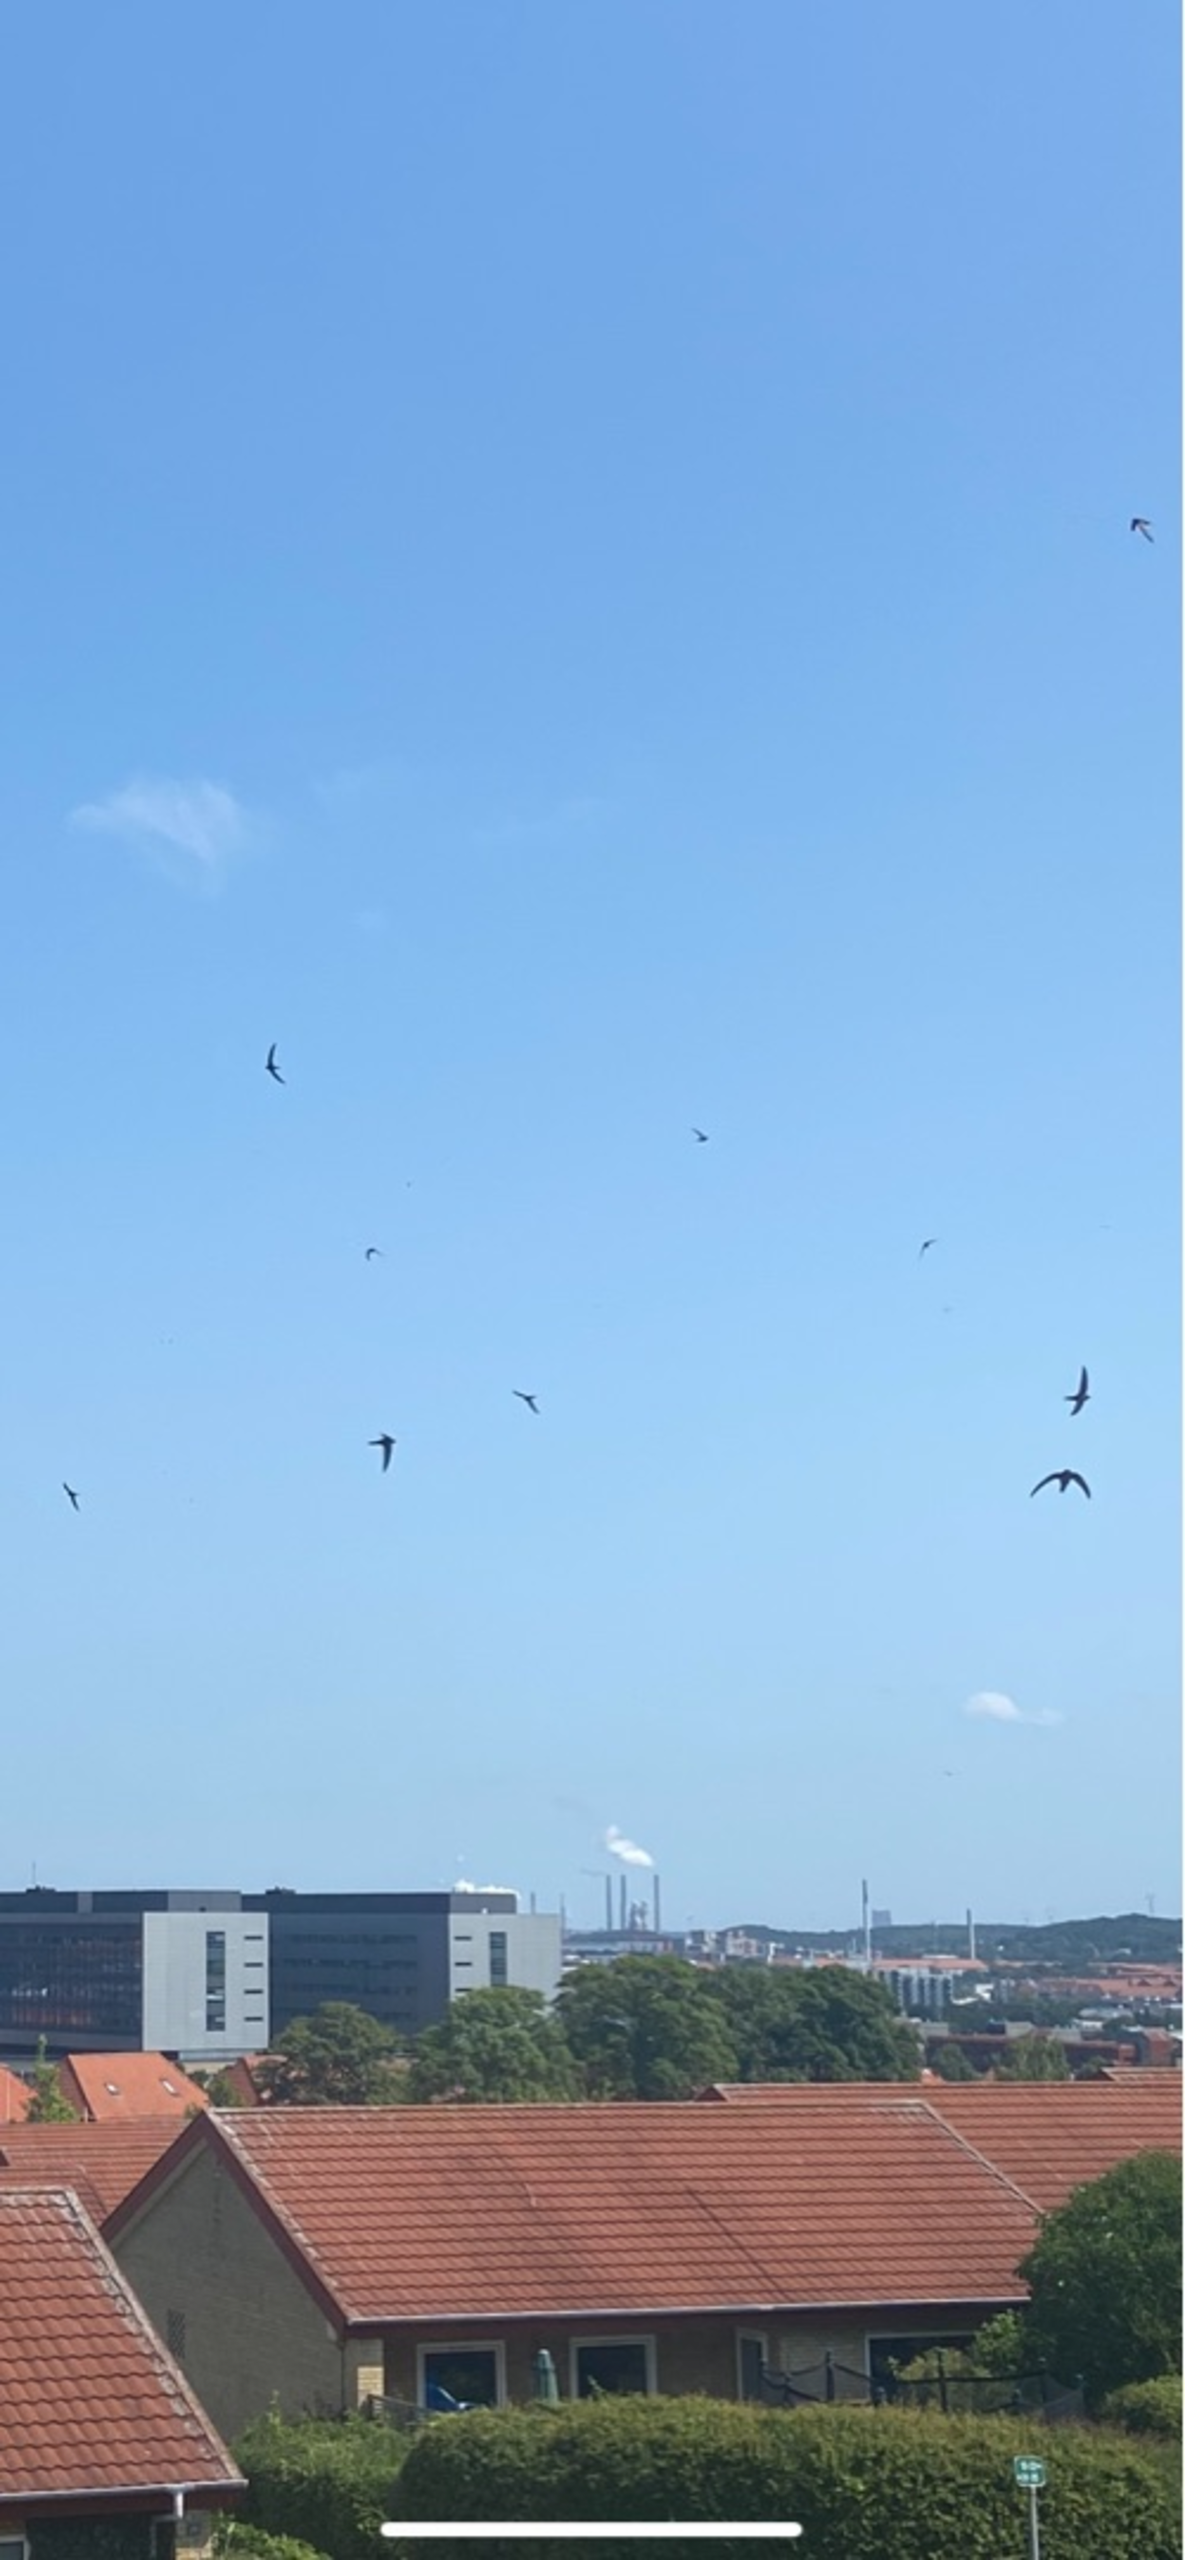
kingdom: Animalia
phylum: Chordata
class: Aves
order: Apodiformes
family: Apodidae
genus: Apus
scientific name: Apus apus
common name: Mursejler
